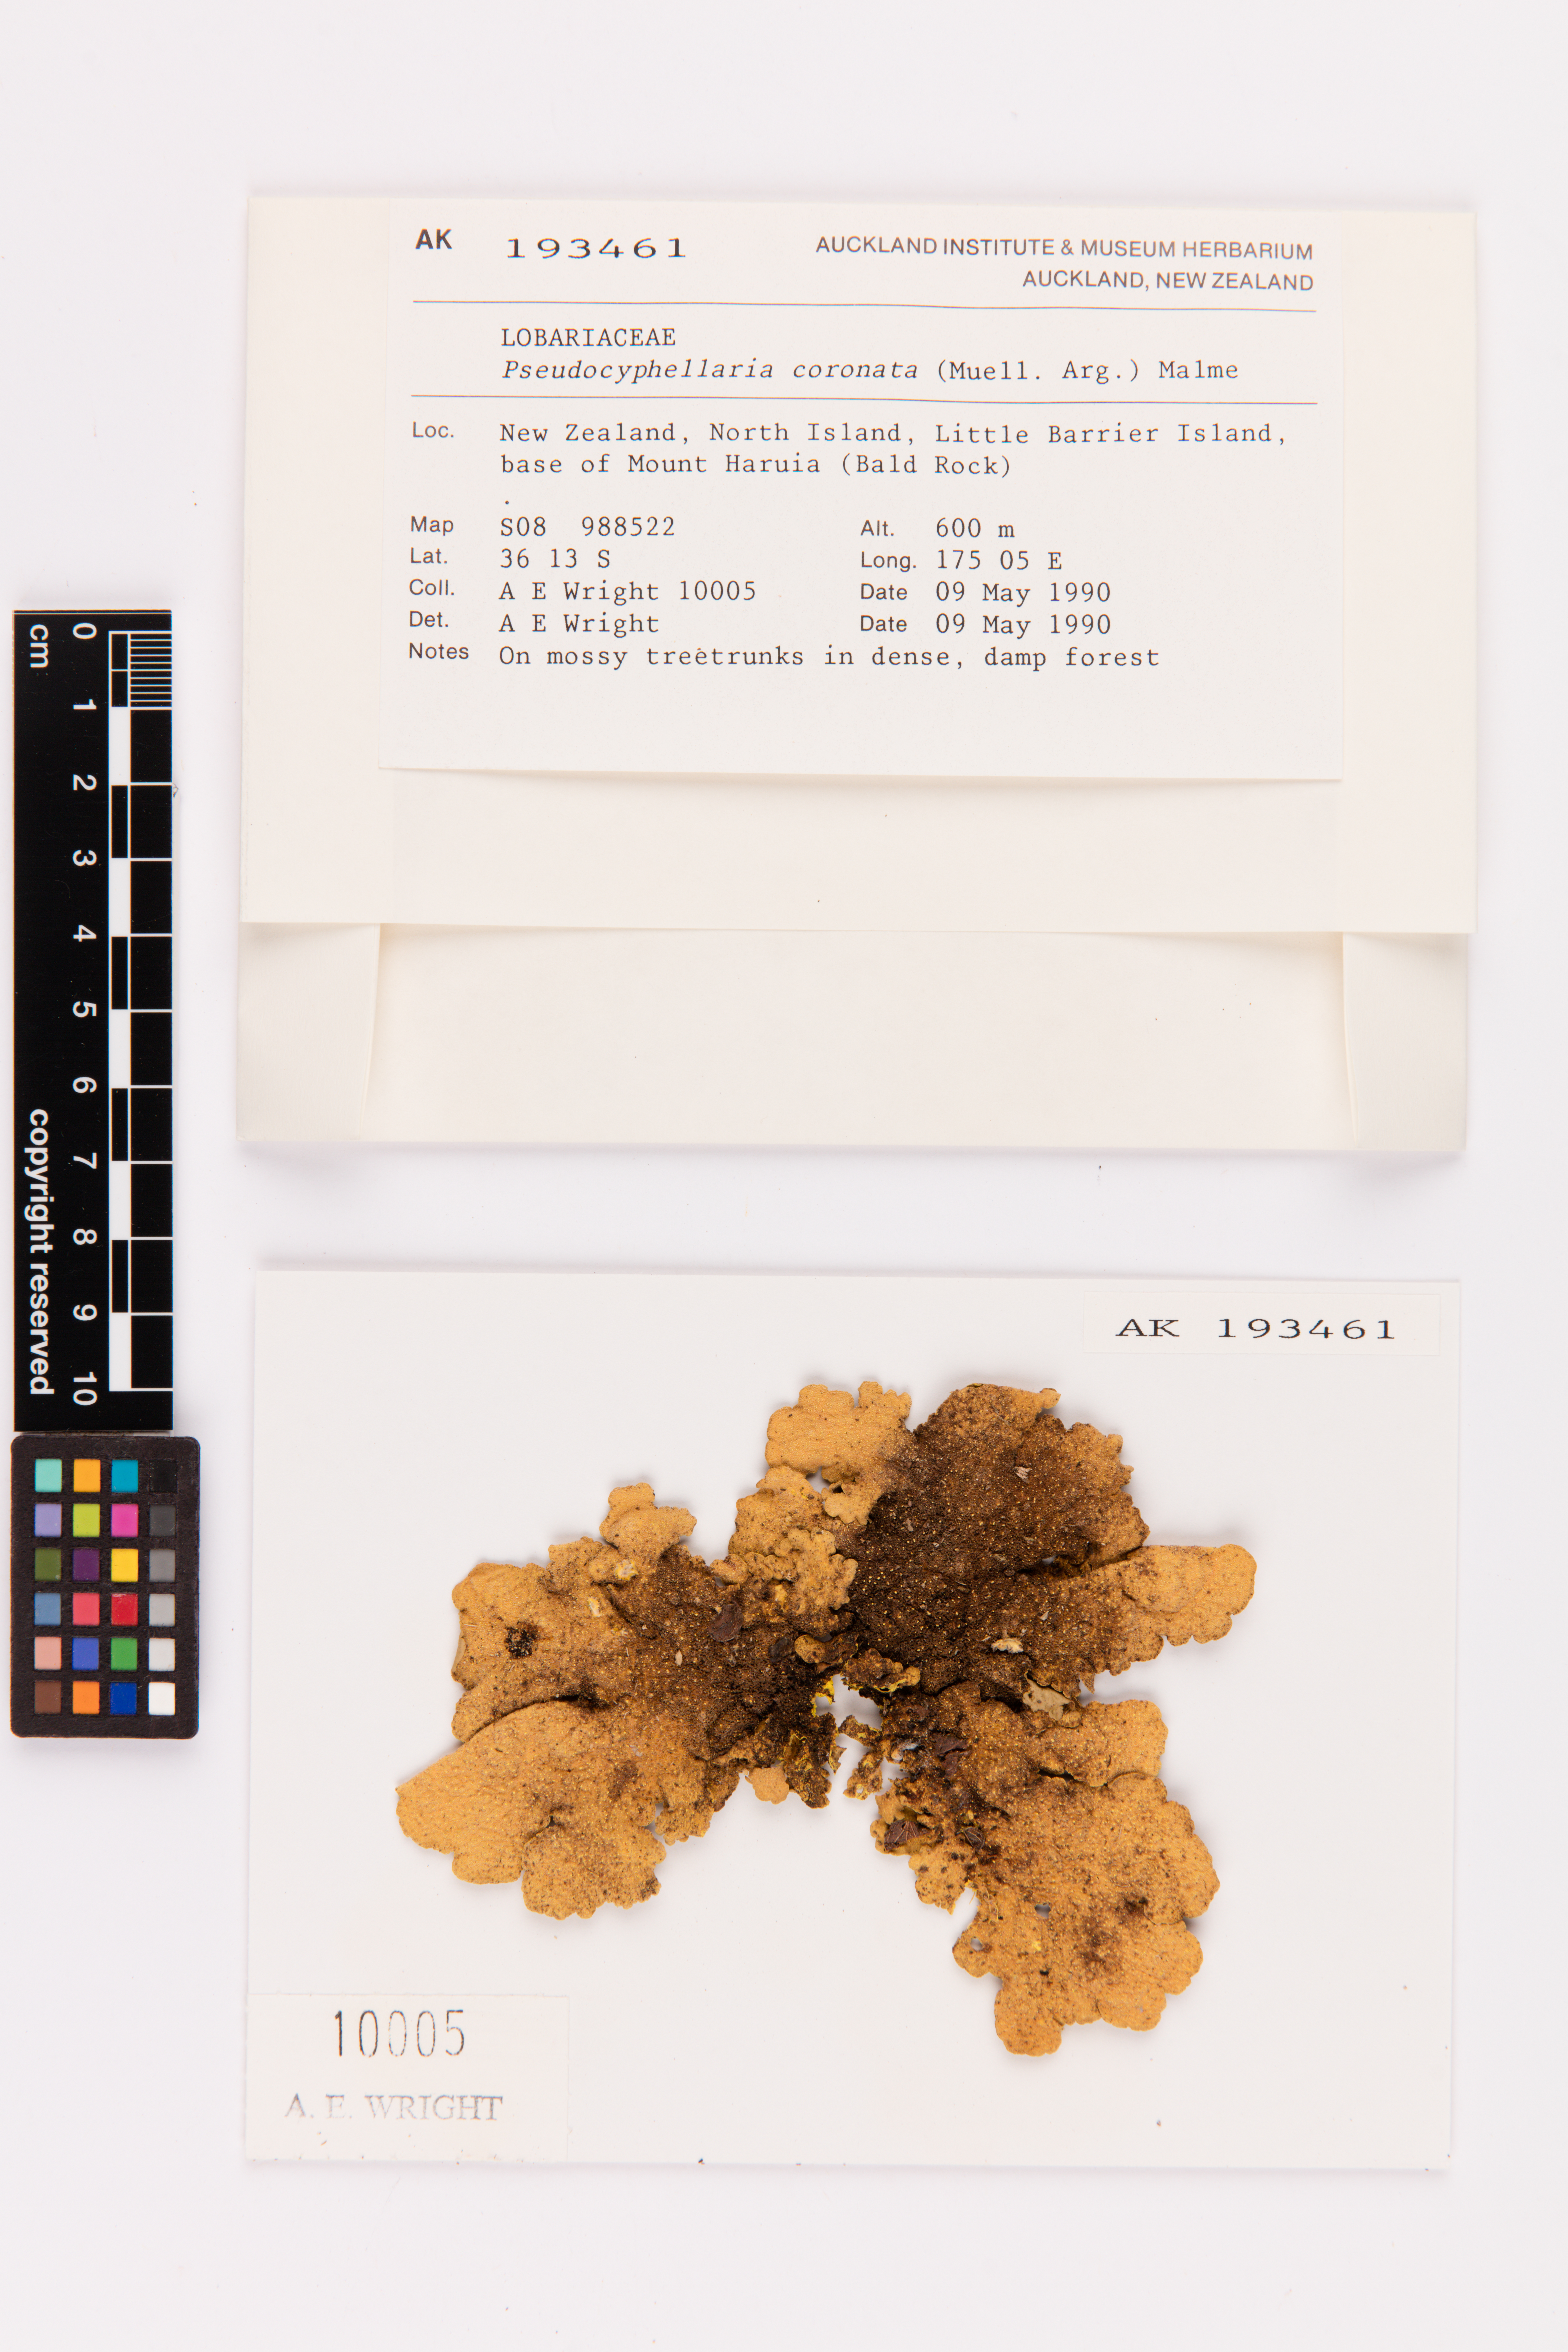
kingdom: Fungi
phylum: Ascomycota
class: Lecanoromycetes
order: Peltigerales
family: Lobariaceae
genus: Yarrumia
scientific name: Yarrumia coronata
